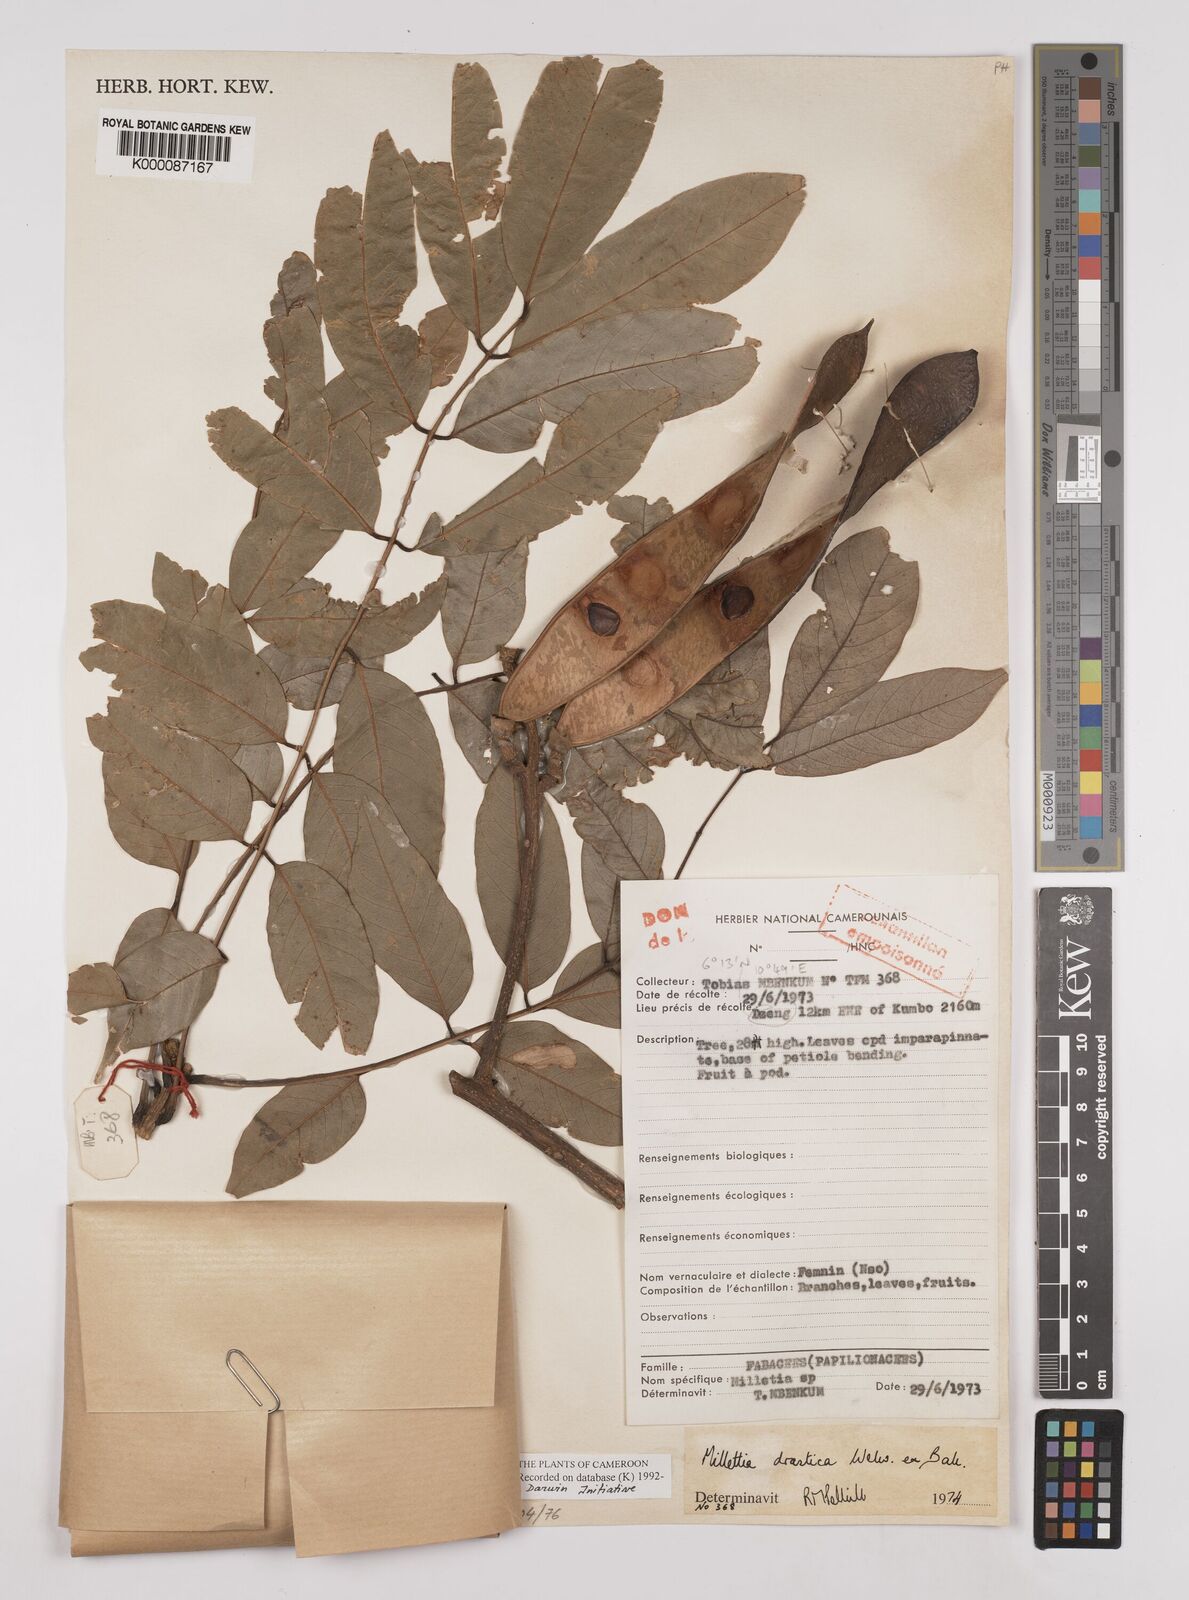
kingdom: Plantae
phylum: Tracheophyta
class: Magnoliopsida
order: Fabales
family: Fabaceae
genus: Millettia
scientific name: Millettia
